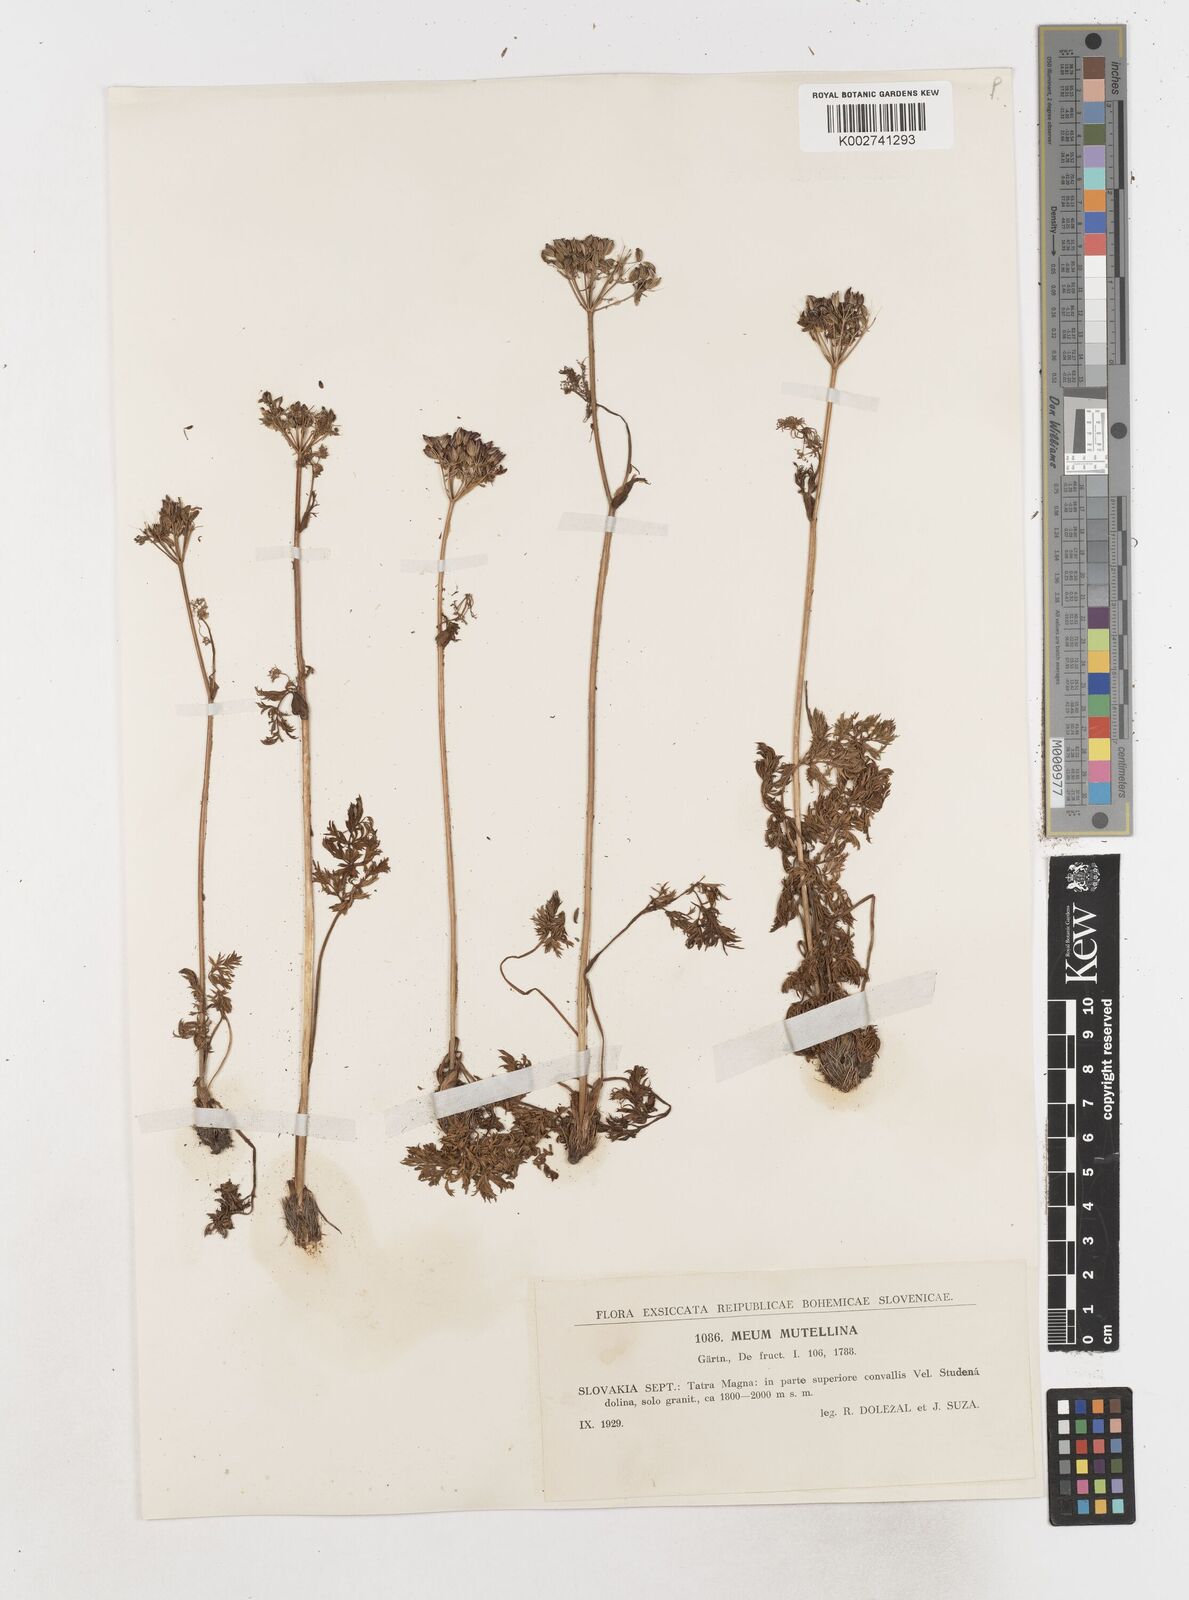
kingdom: Plantae
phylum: Tracheophyta
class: Magnoliopsida
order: Apiales
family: Apiaceae
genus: Mutellina
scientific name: Mutellina adonidifolia
